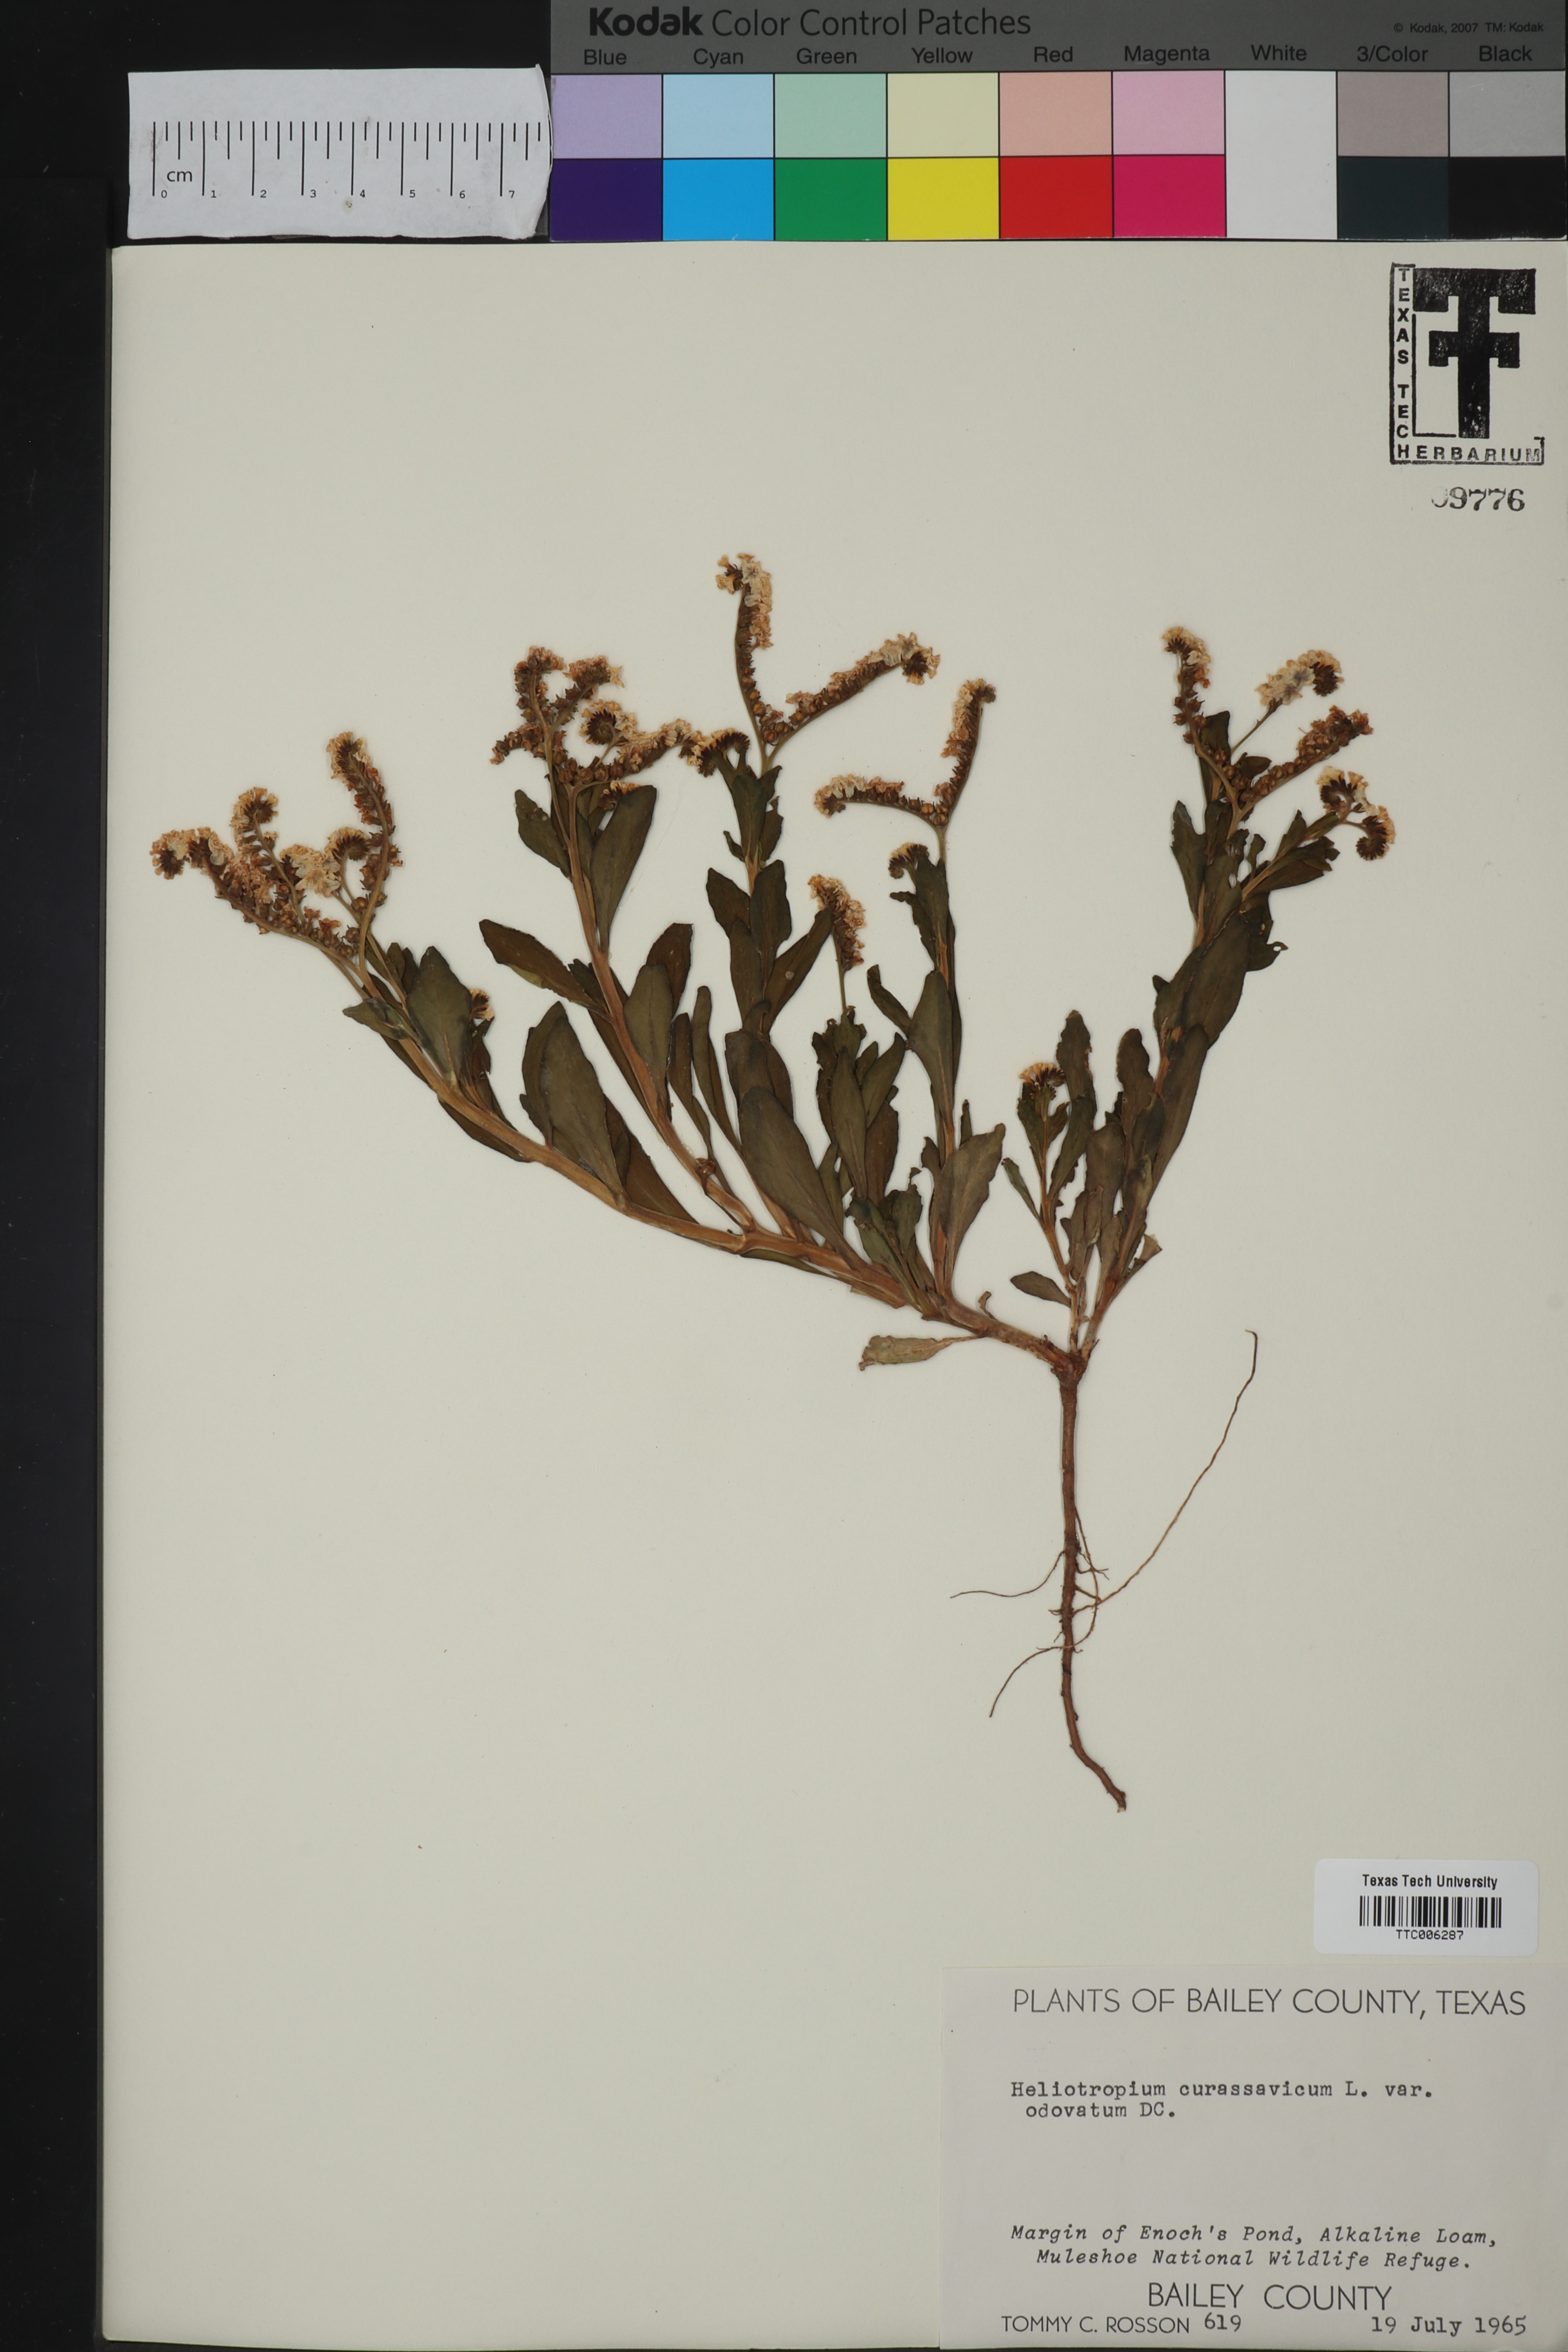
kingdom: Plantae
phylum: Tracheophyta
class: Magnoliopsida
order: Boraginales
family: Heliotropiaceae
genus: Heliotropium
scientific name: Heliotropium curassavicum
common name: Seaside heliotrope
